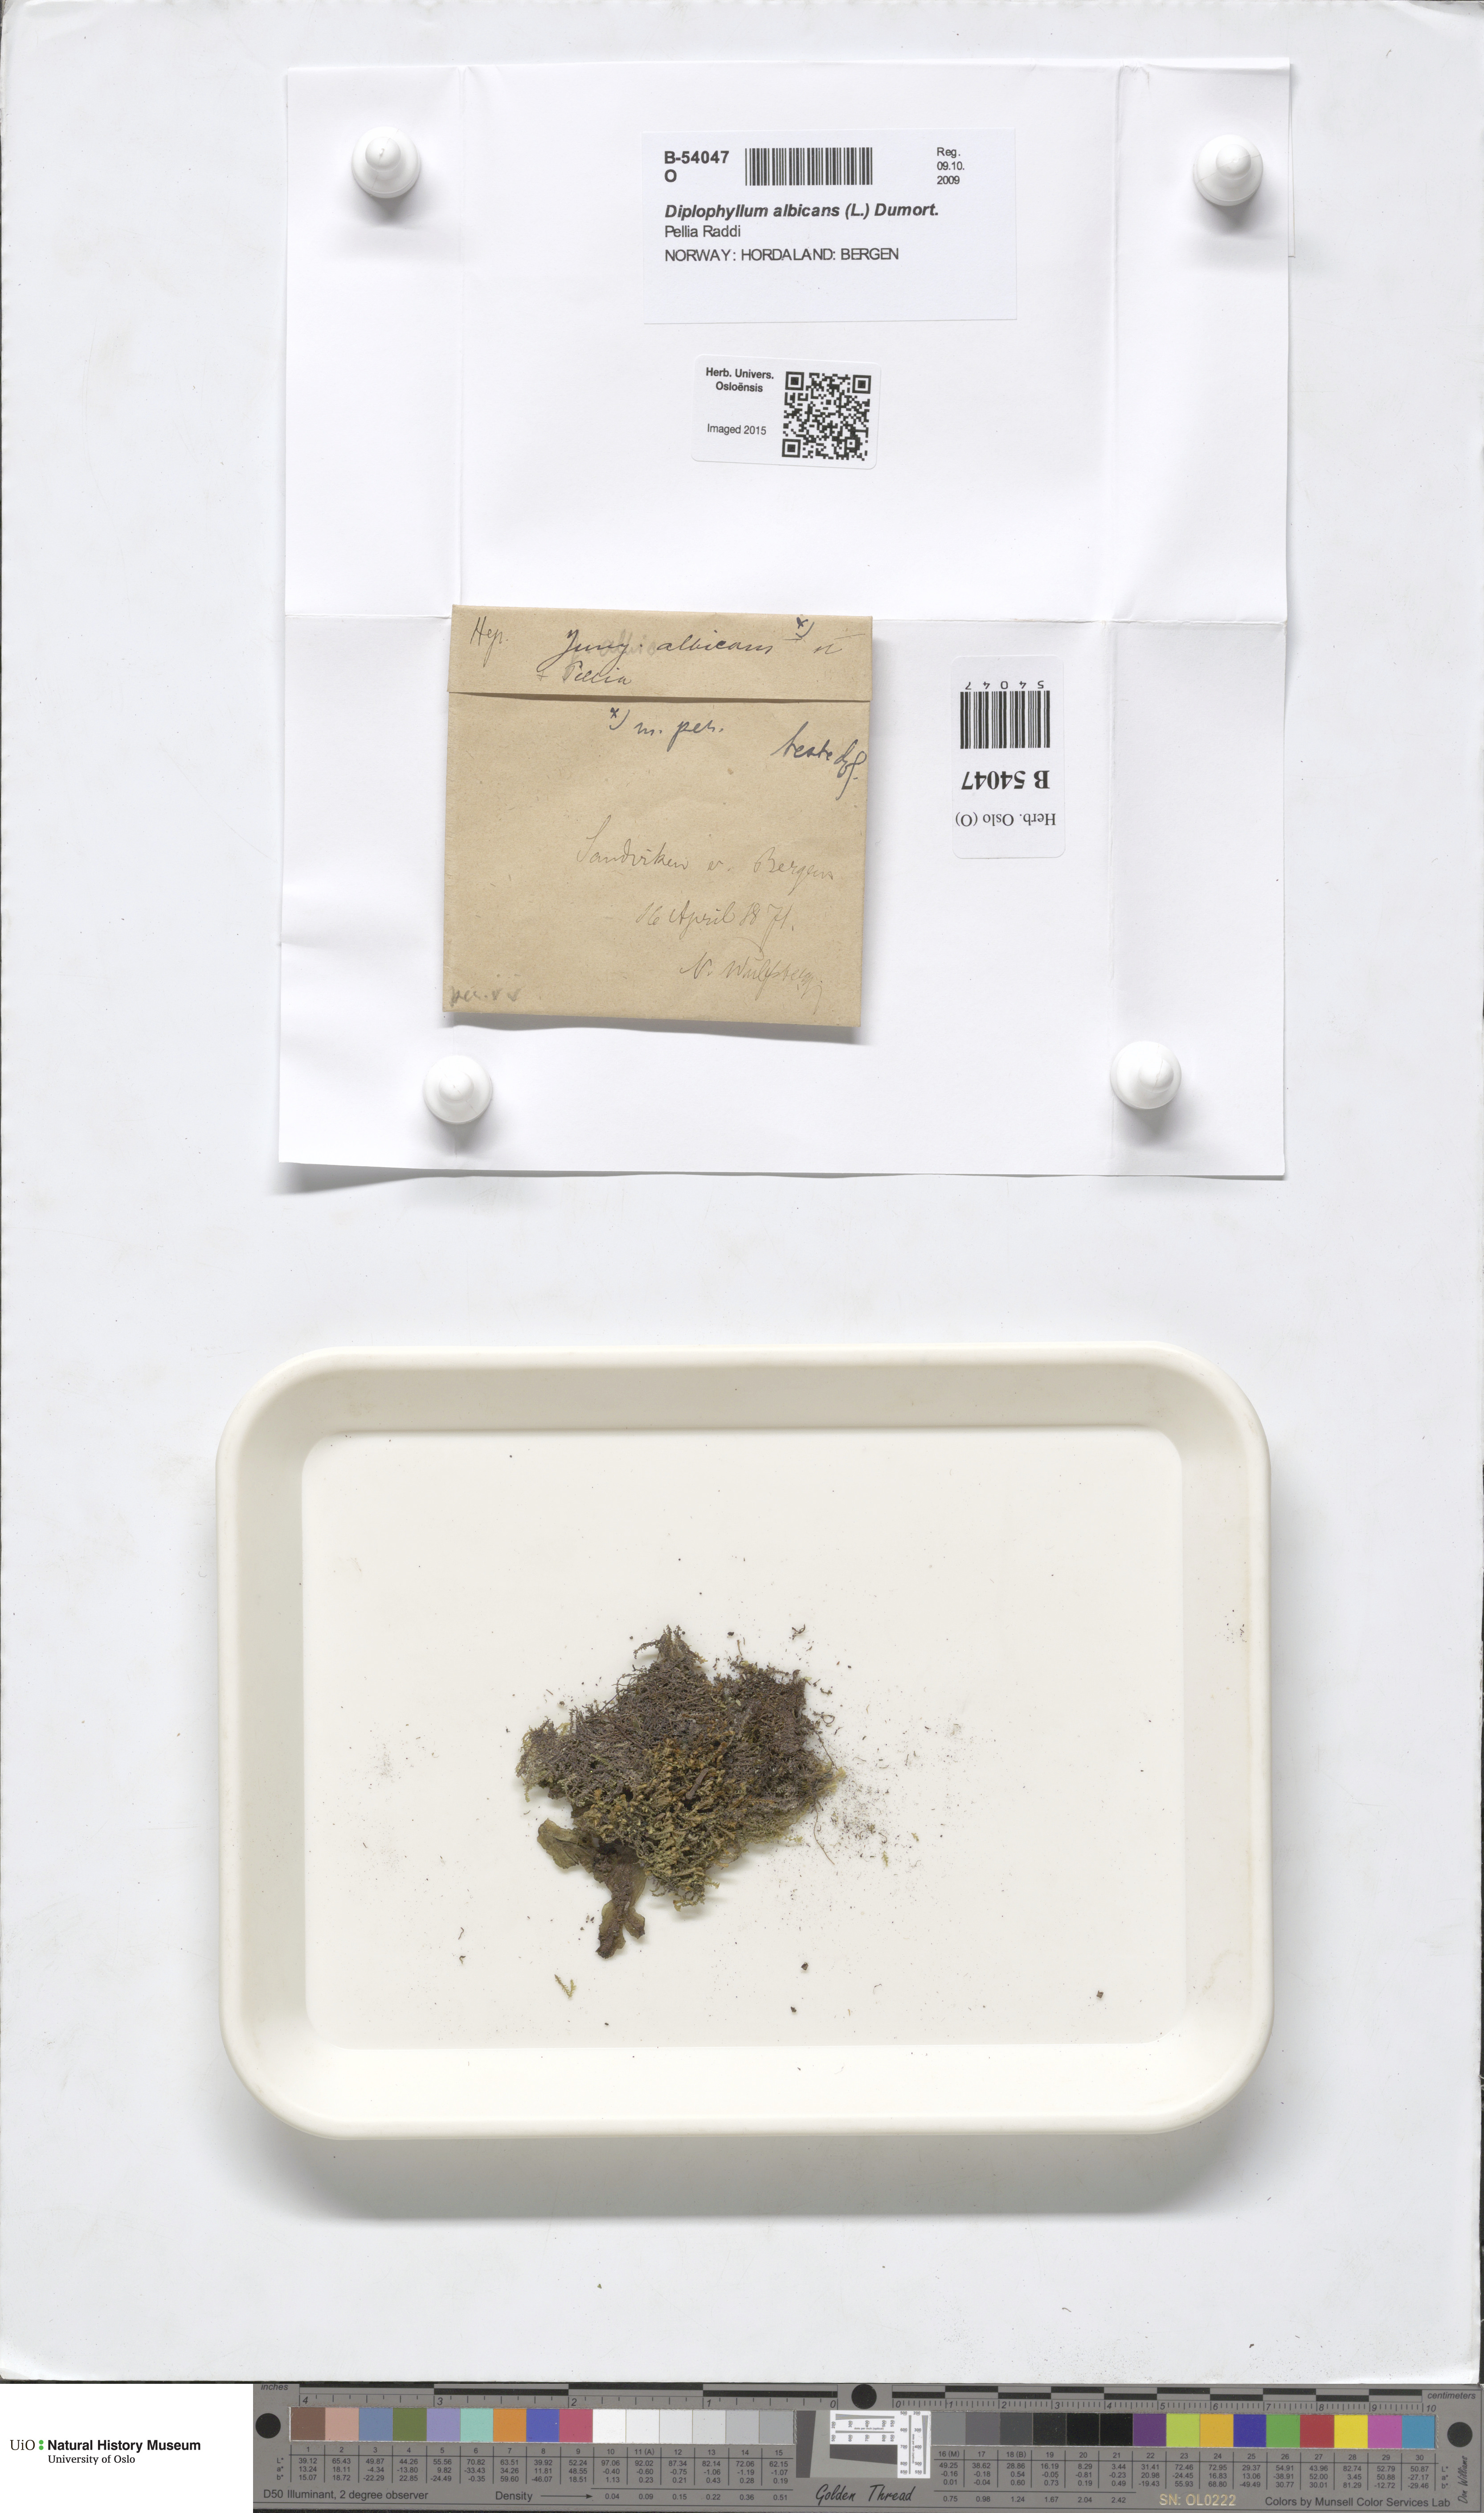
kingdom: Plantae
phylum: Marchantiophyta
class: Jungermanniopsida
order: Jungermanniales
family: Scapaniaceae
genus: Diplophyllum
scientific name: Diplophyllum albicans
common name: White earwort
